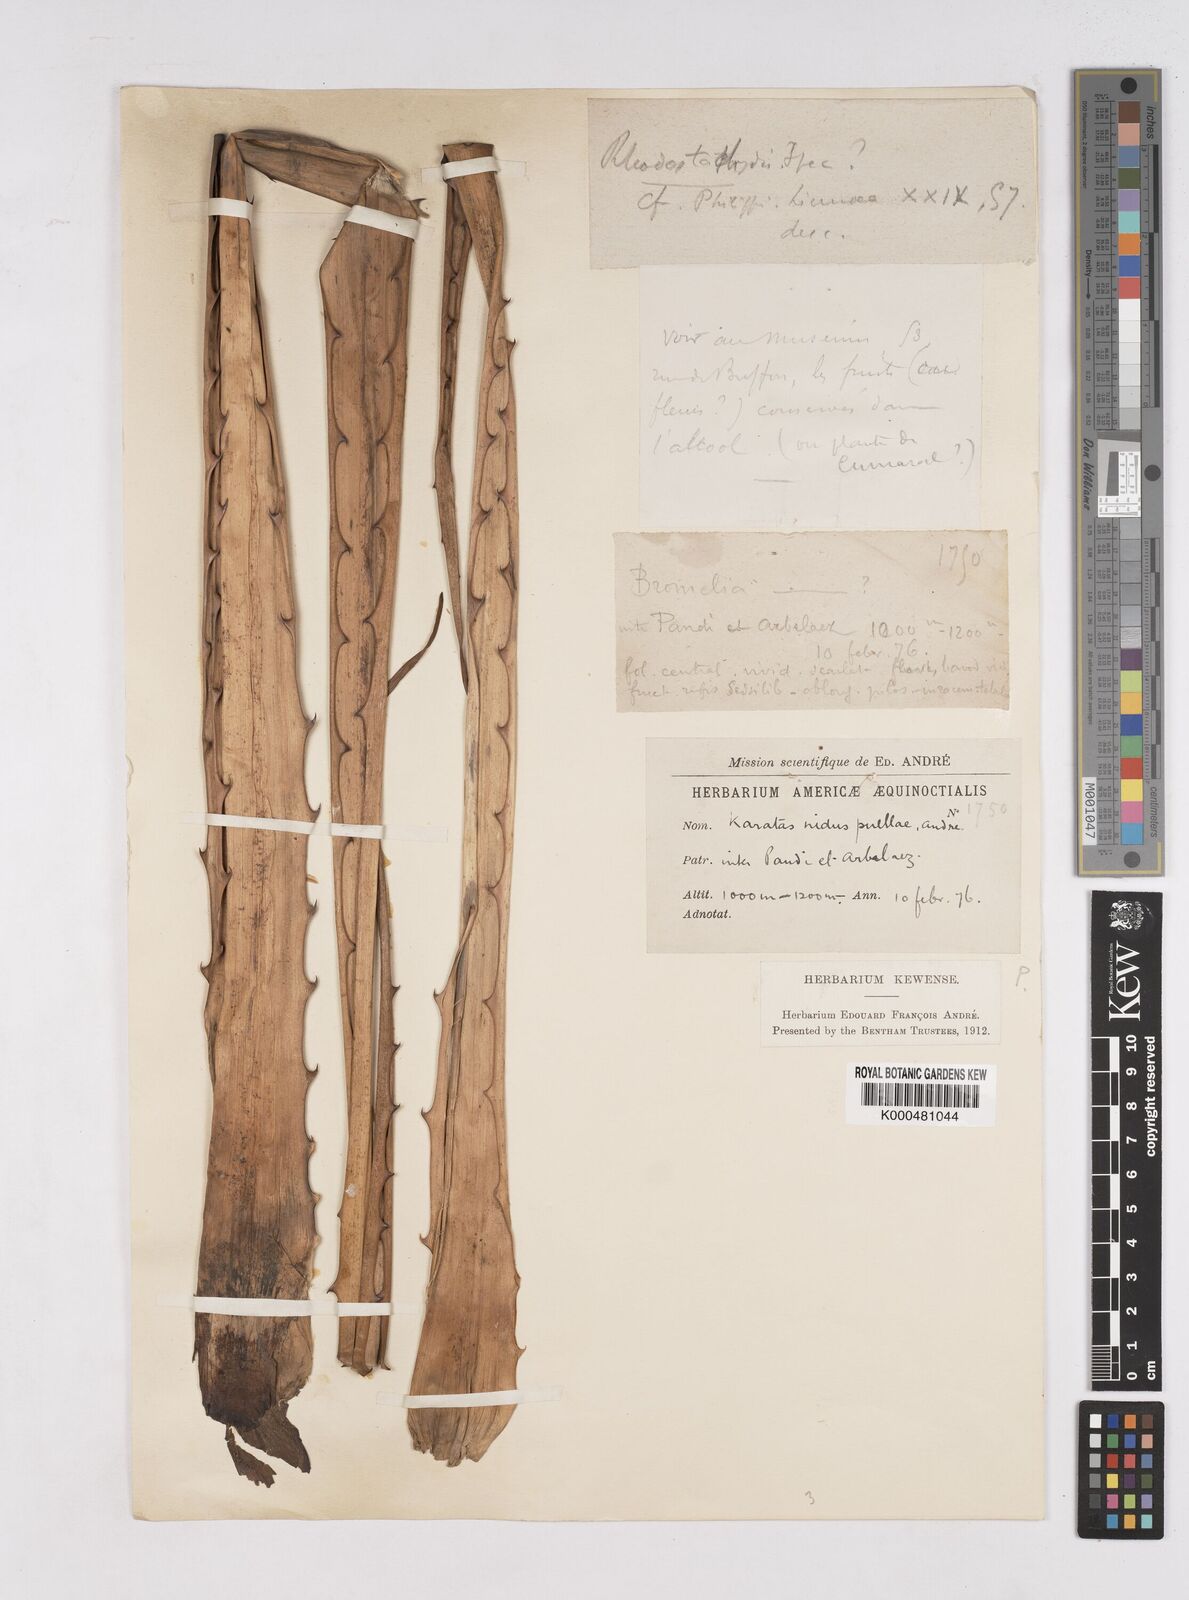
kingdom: Plantae
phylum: Tracheophyta
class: Liliopsida
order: Poales
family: Bromeliaceae
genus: Bromelia
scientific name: Bromelia
